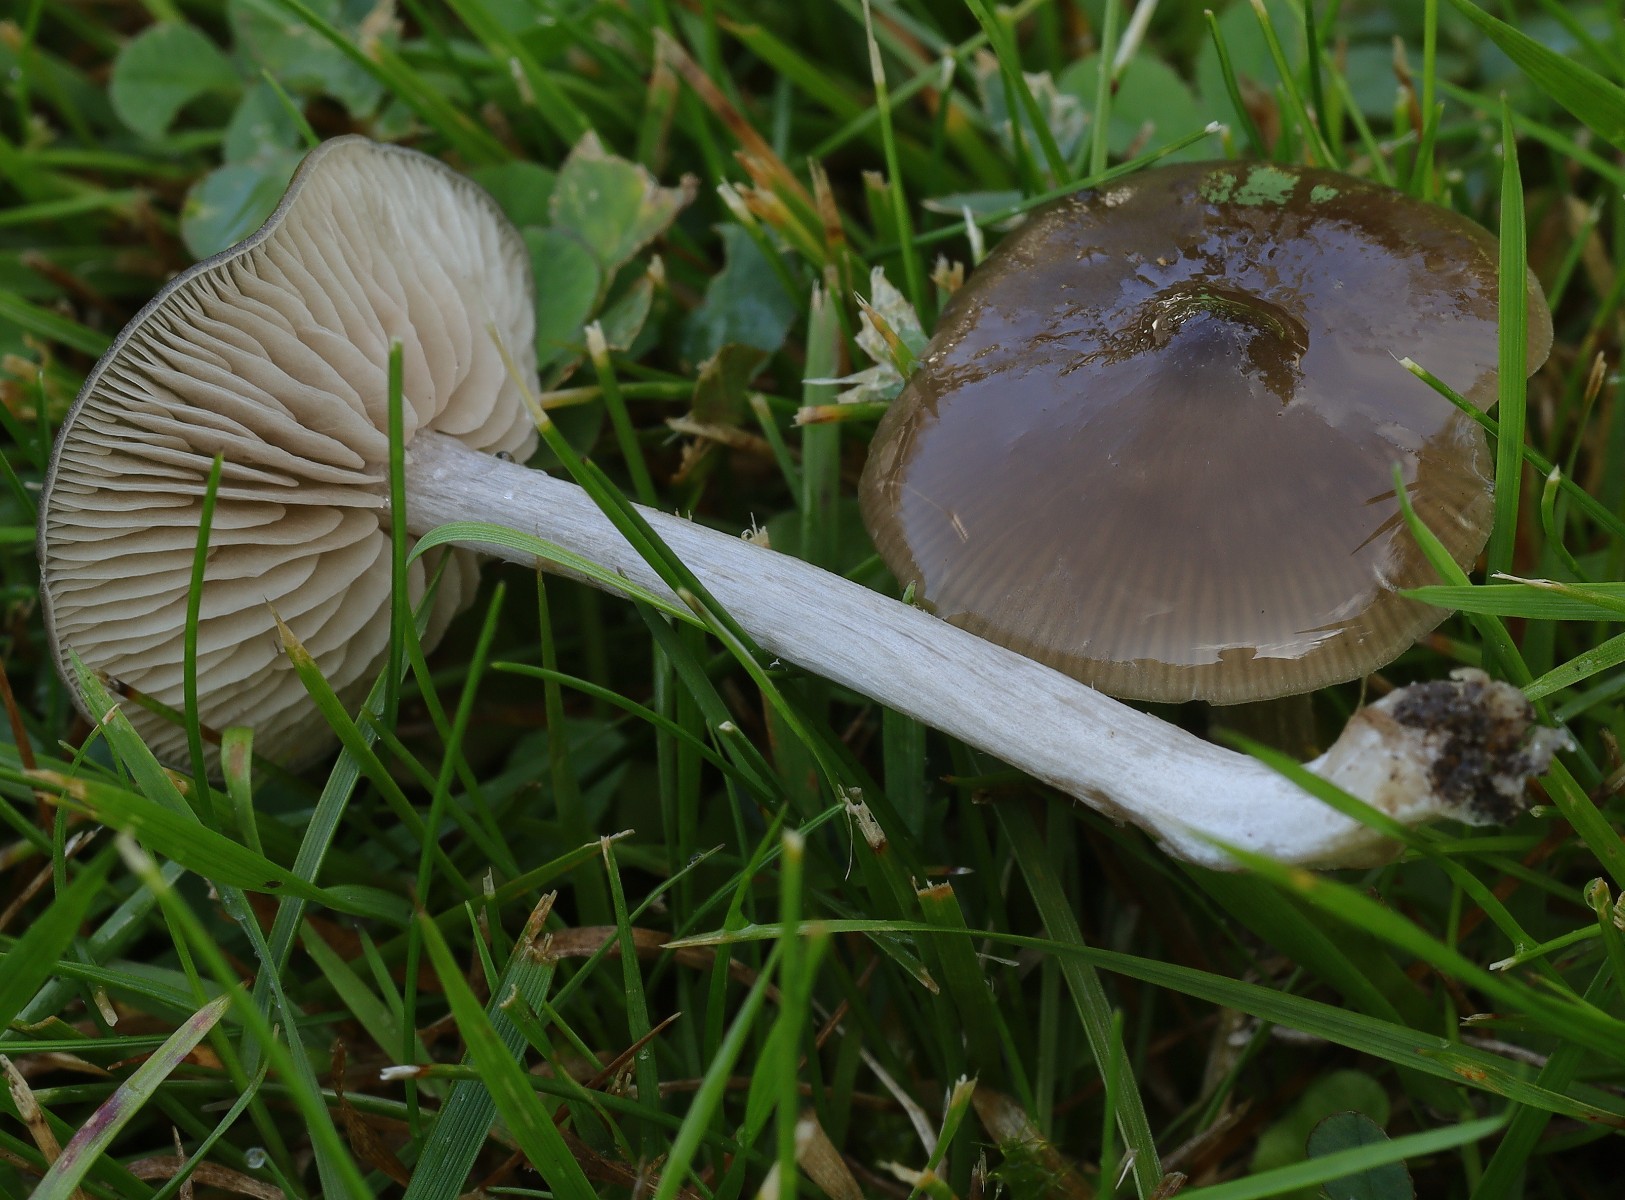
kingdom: Fungi
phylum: Basidiomycota
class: Agaricomycetes
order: Agaricales
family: Entolomataceae
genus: Entoloma
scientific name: Entoloma
